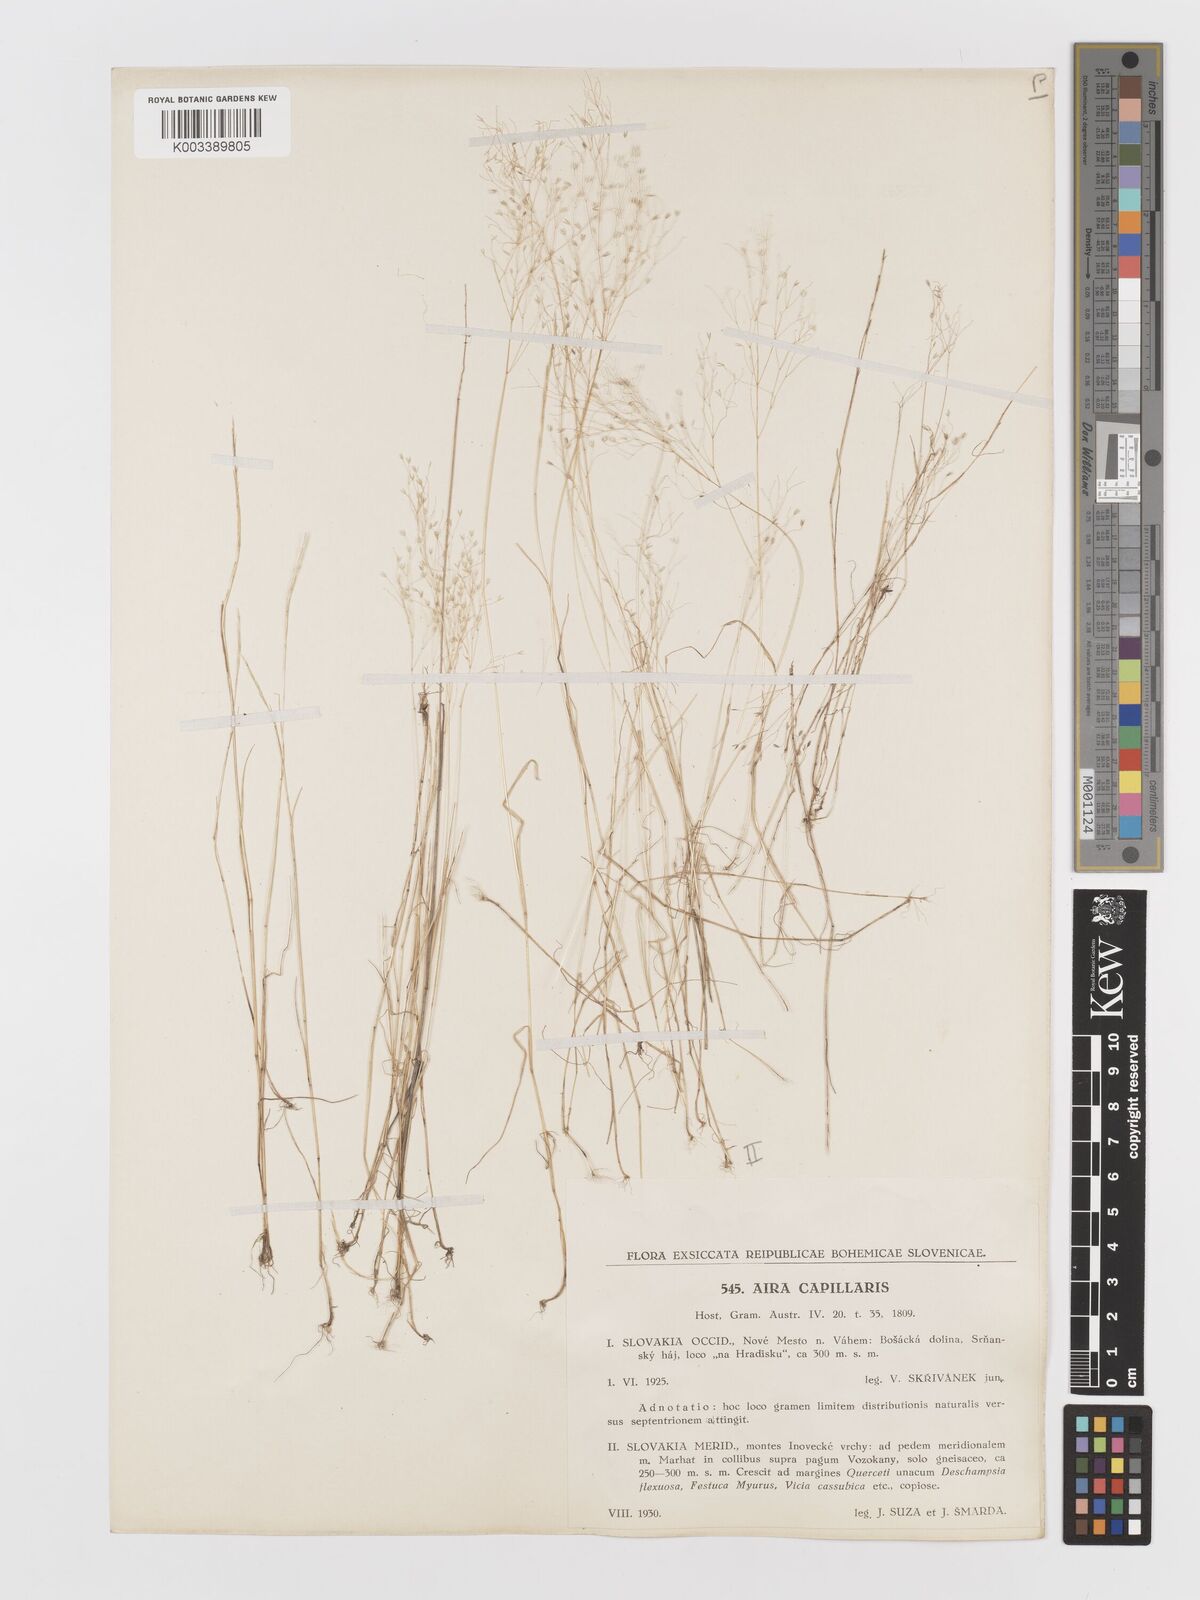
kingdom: Plantae
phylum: Tracheophyta
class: Liliopsida
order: Poales
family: Poaceae
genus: Aira
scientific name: Aira elegans
